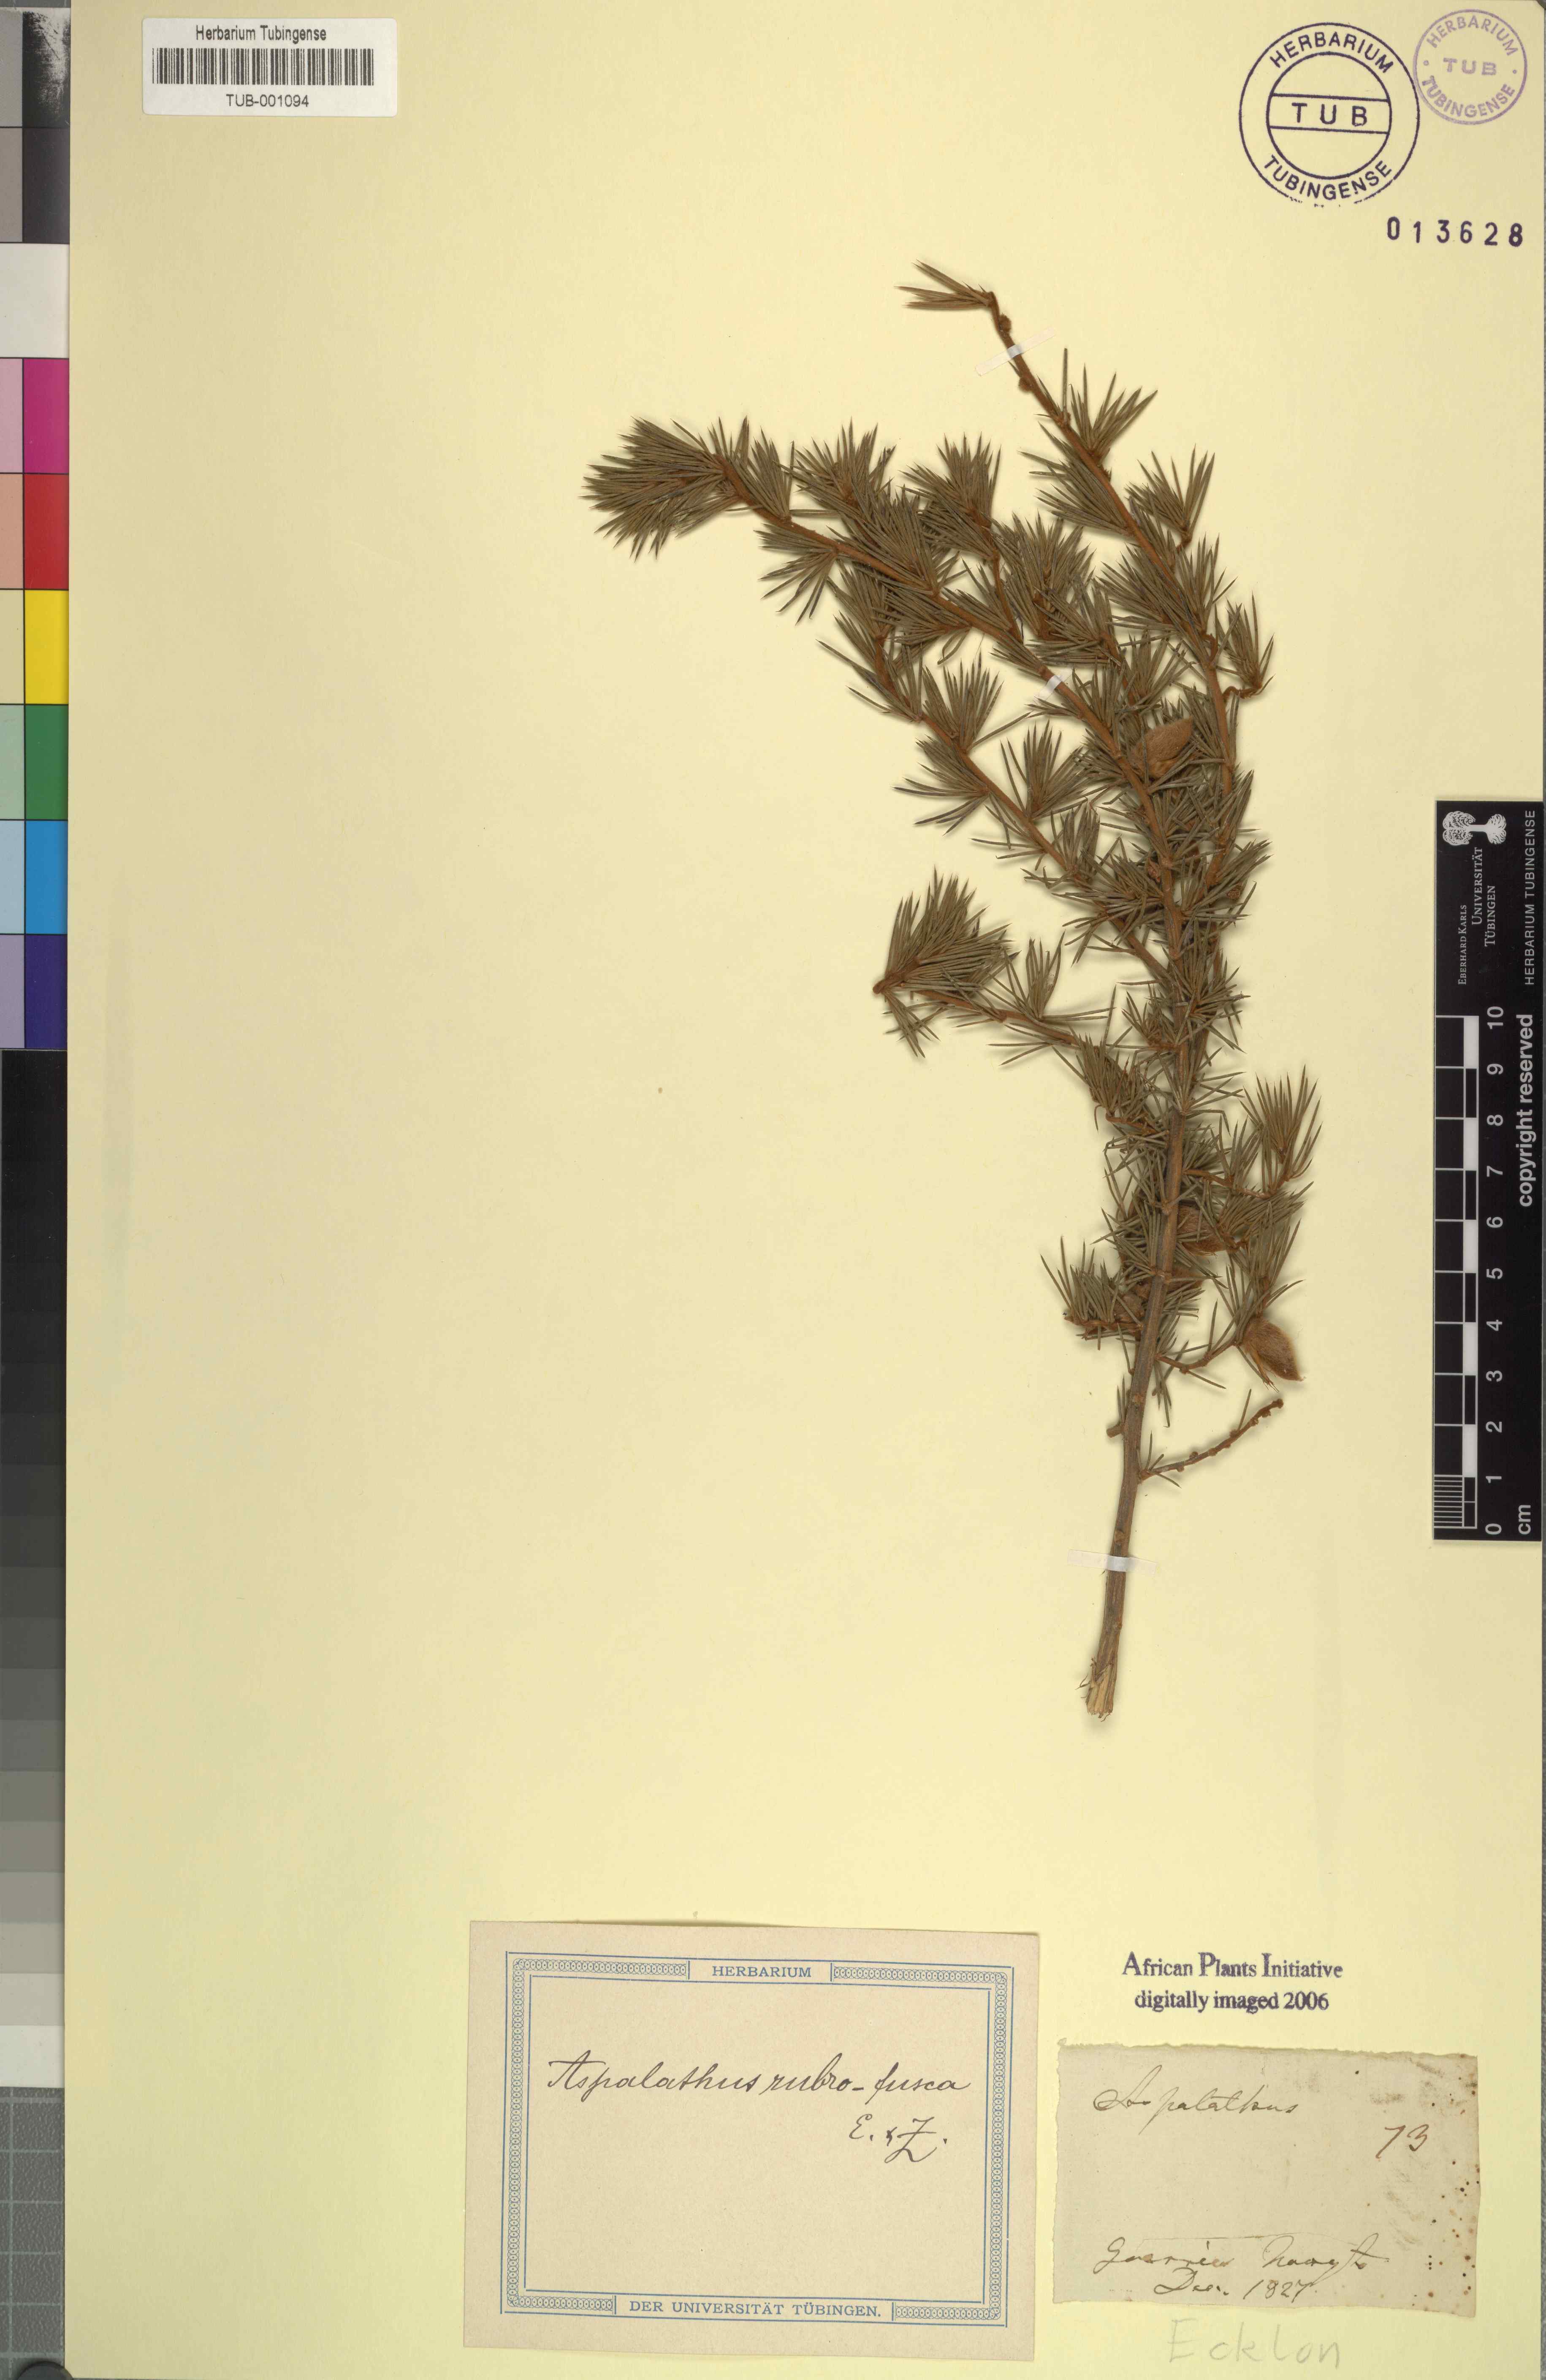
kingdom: Plantae
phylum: Tracheophyta
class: Magnoliopsida
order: Fabales
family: Fabaceae
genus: Aspalathus
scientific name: Aspalathus asparagoides
